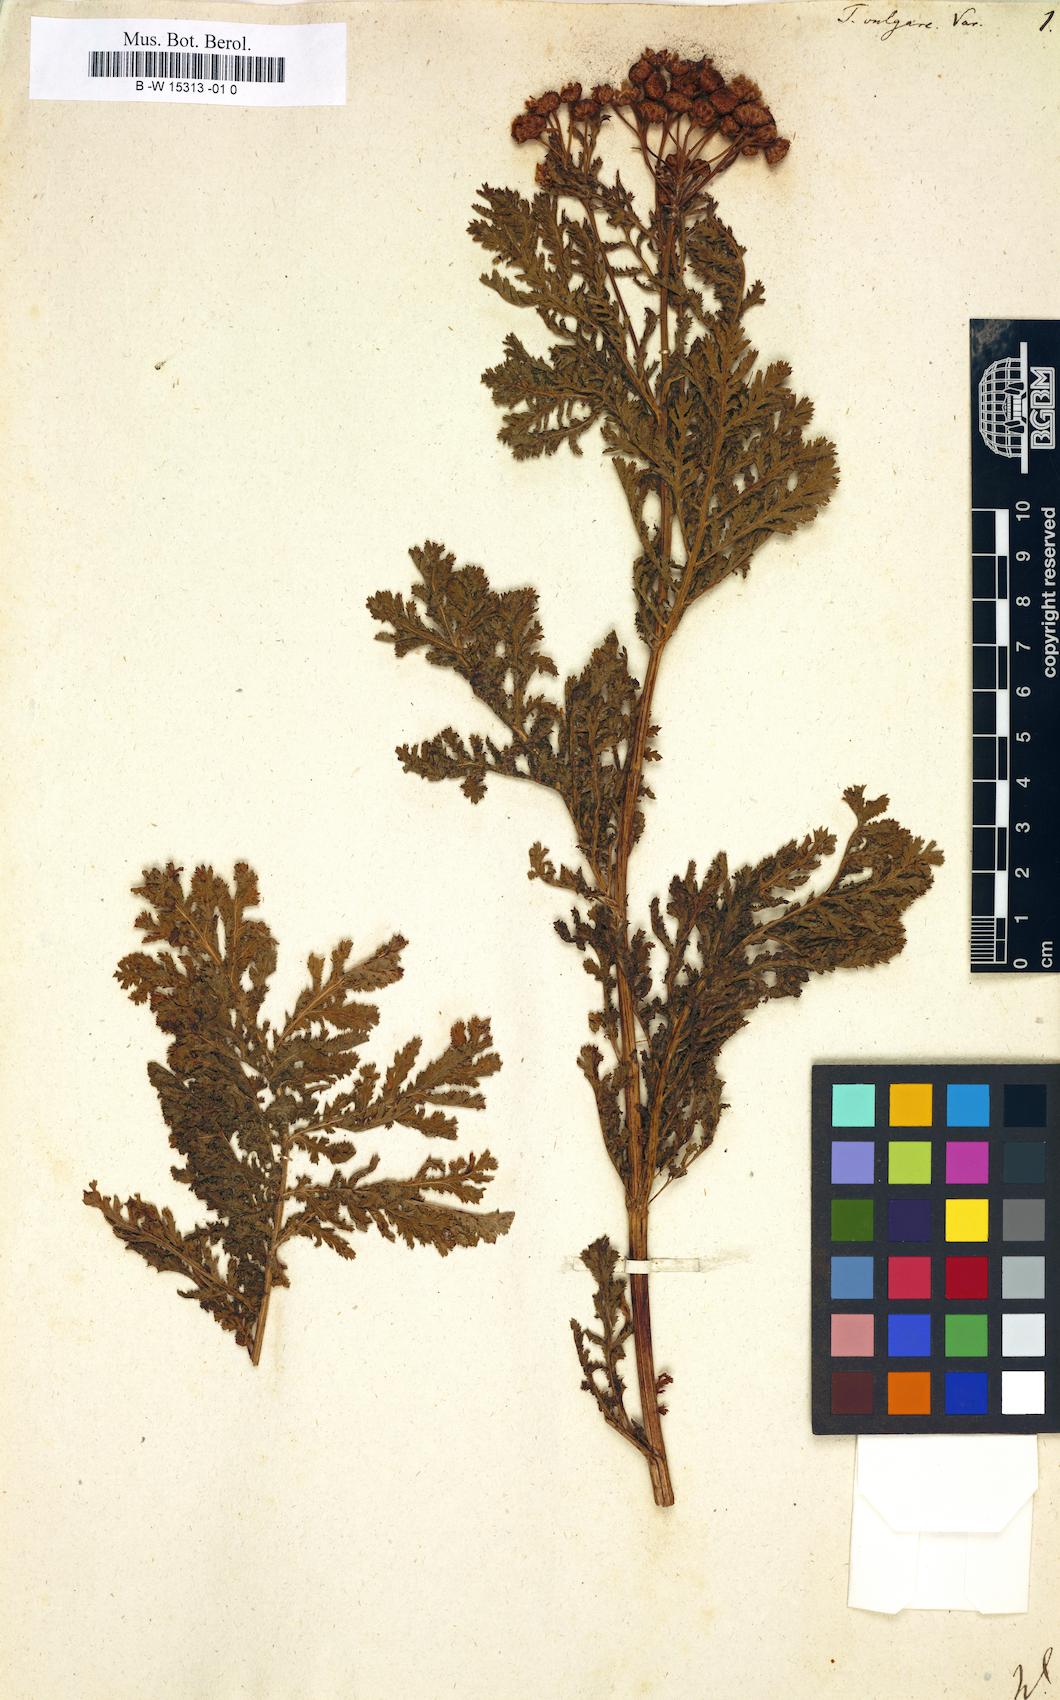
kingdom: Plantae
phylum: Tracheophyta
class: Magnoliopsida
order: Asterales
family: Asteraceae
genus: Tanacetum
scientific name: Tanacetum vulgare
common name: Common tansy
